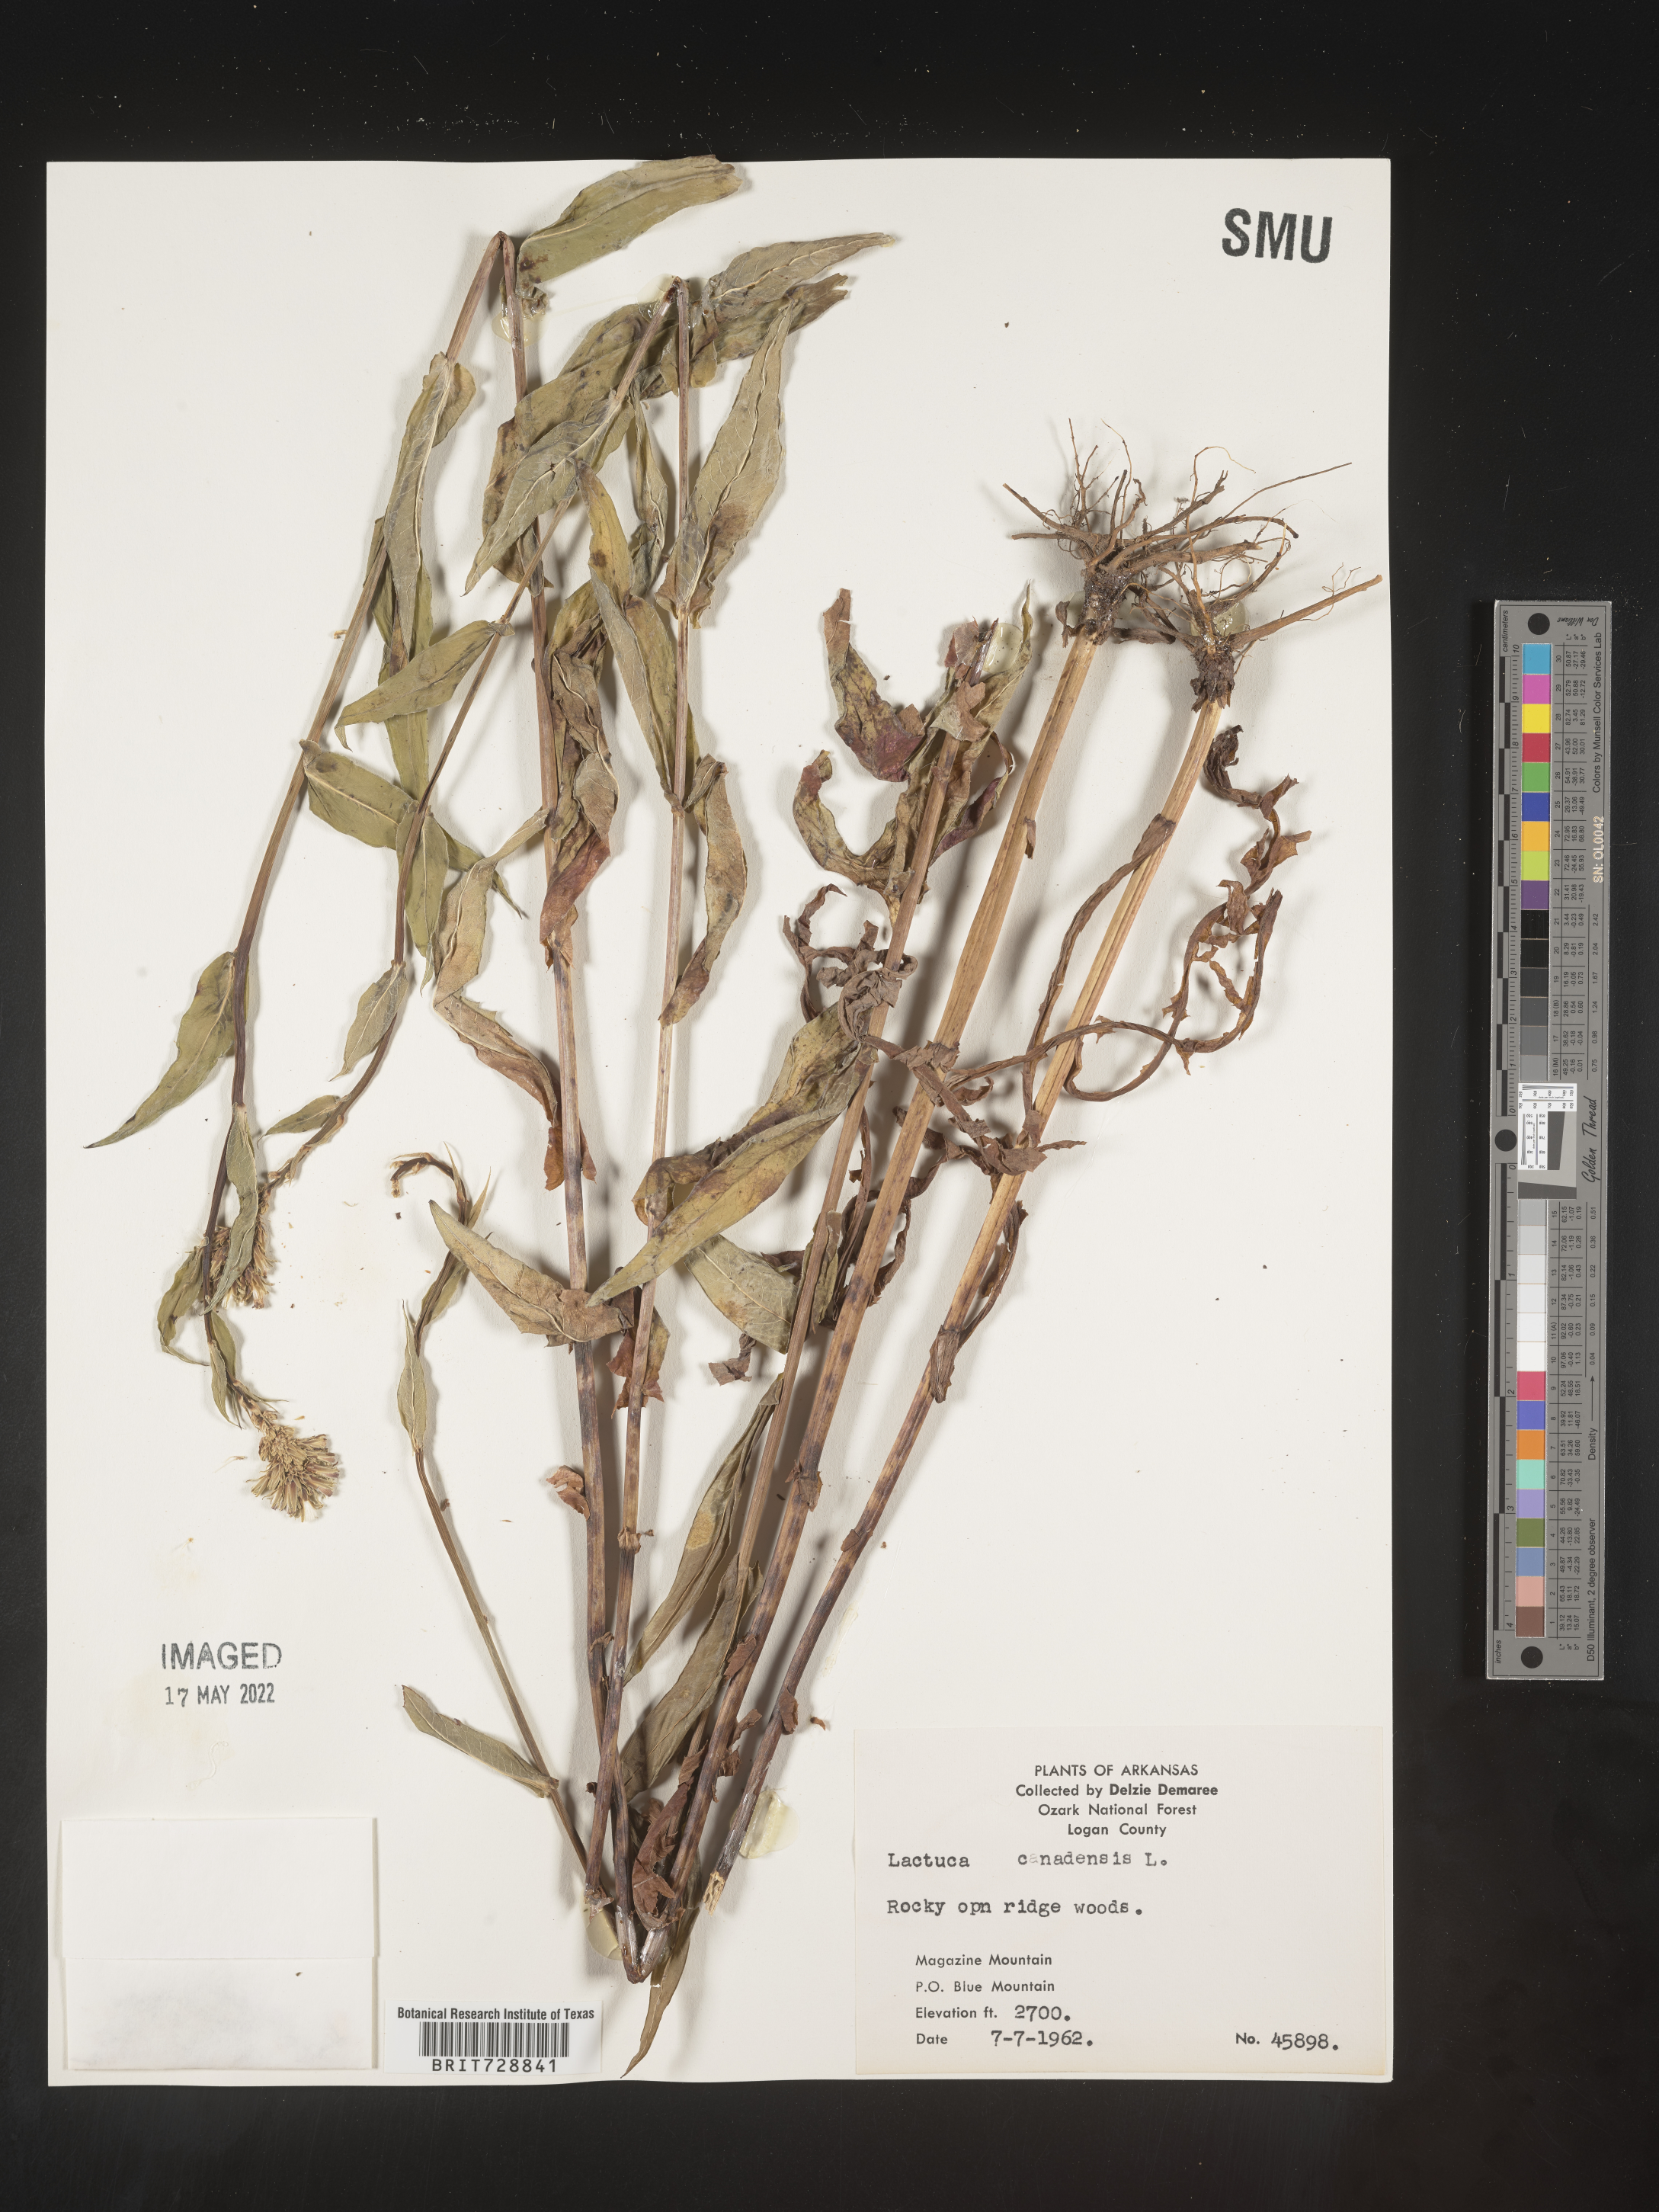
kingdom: Plantae
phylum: Tracheophyta
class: Magnoliopsida
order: Asterales
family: Asteraceae
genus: Lactuca
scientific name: Lactuca canadensis
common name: Canada lettuce
